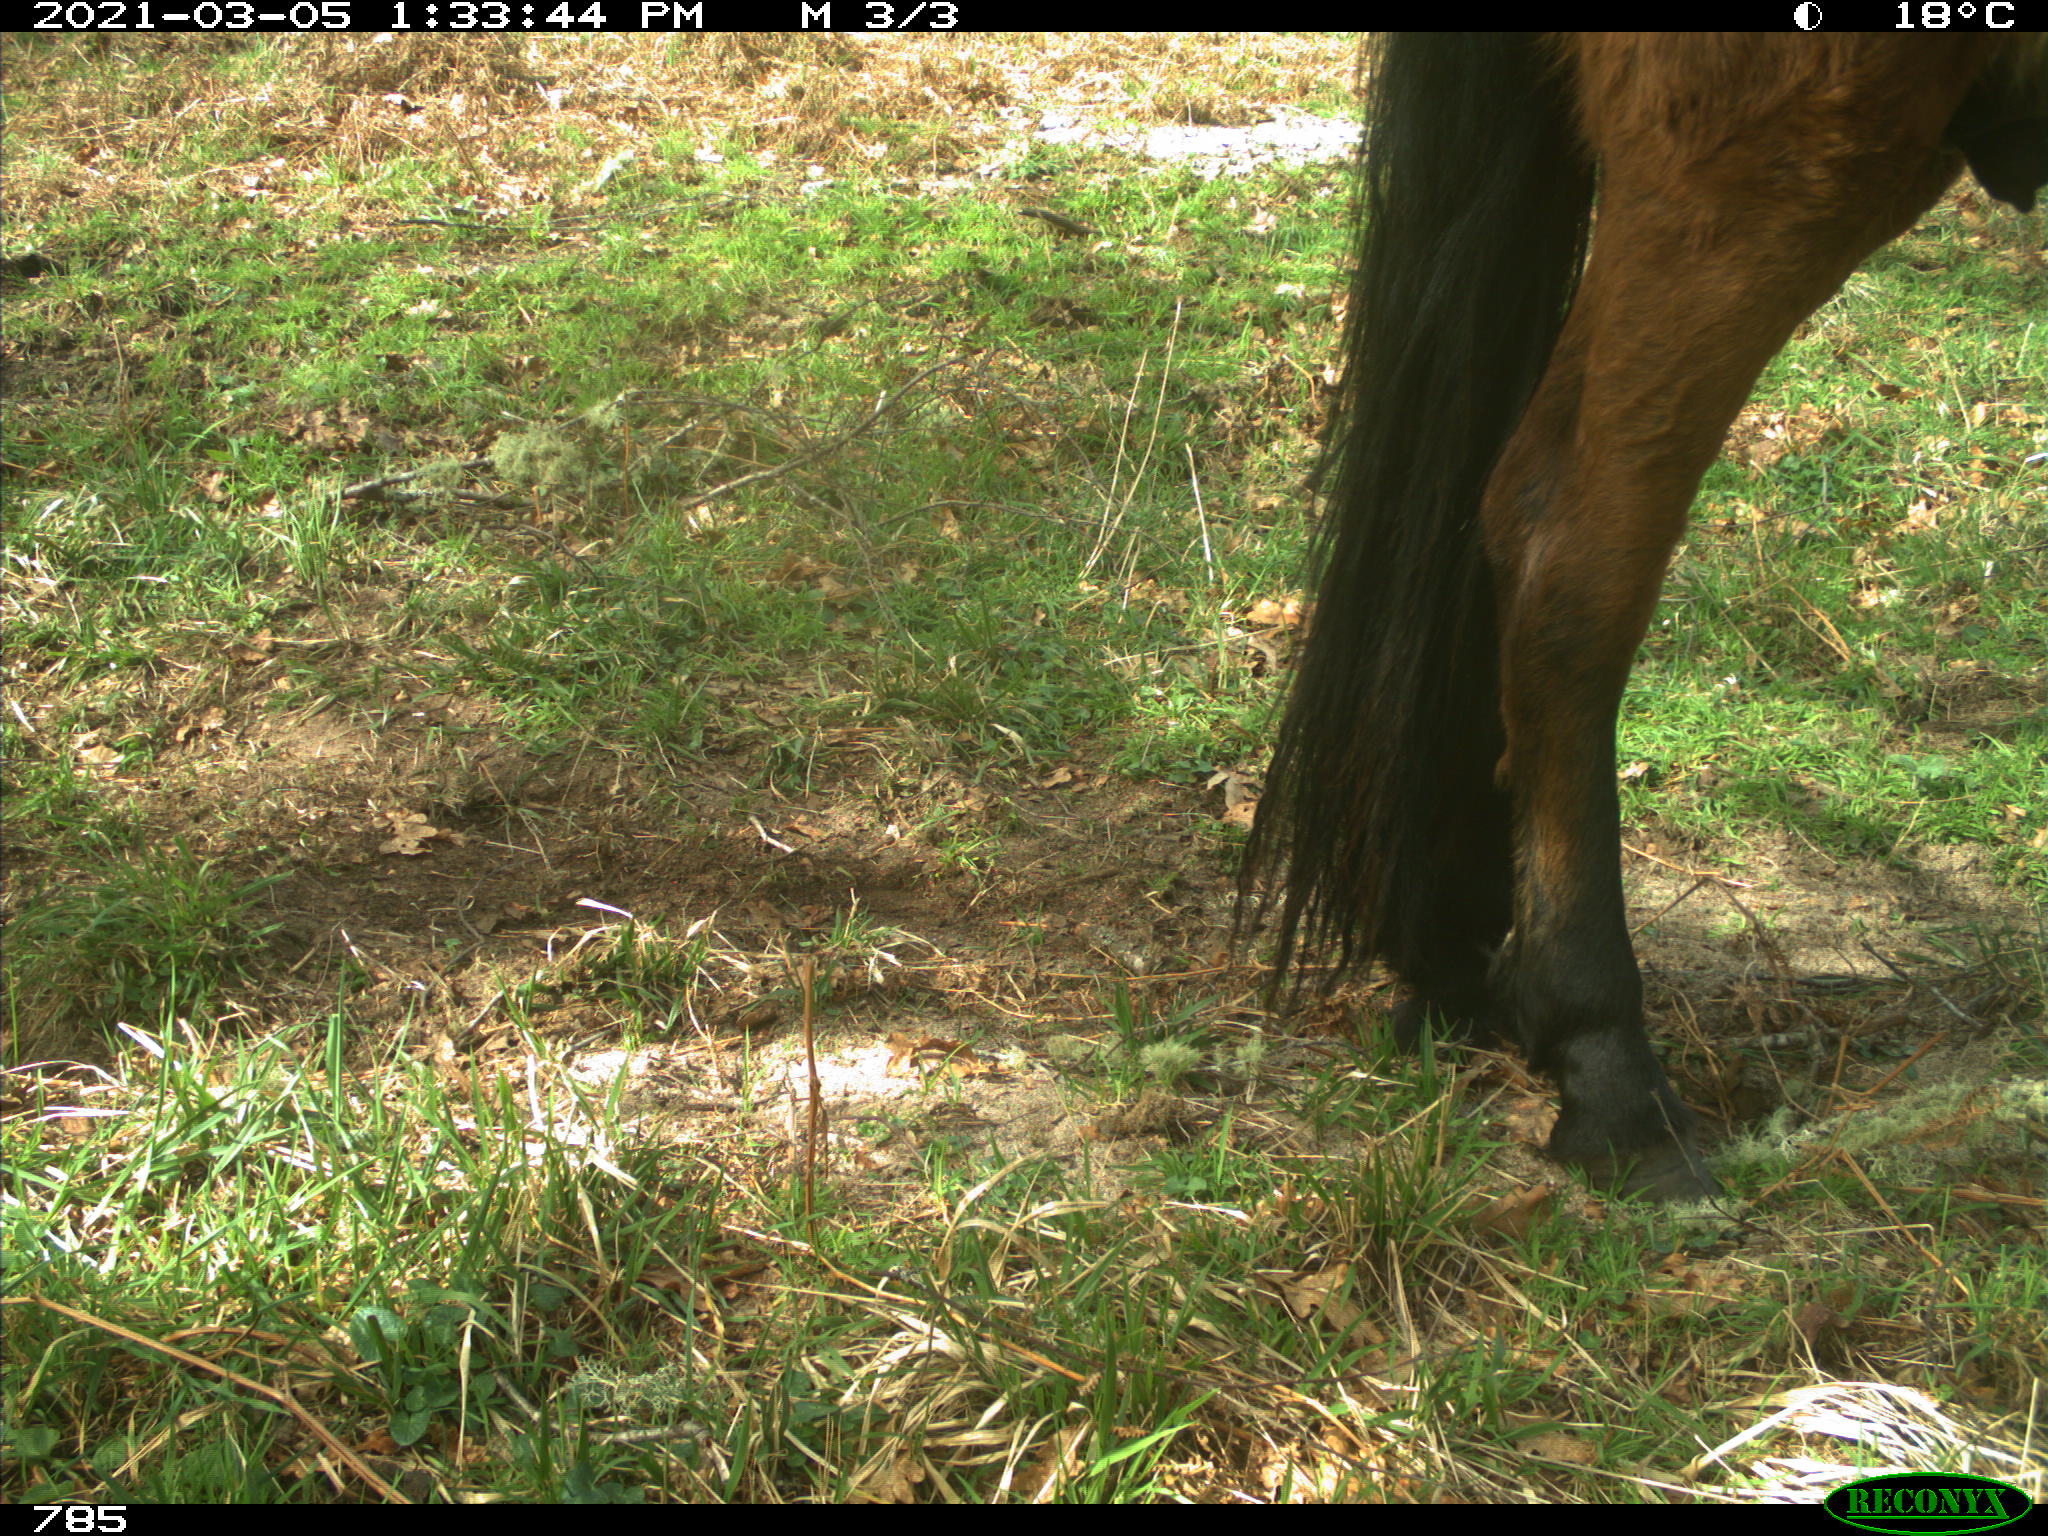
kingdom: Animalia
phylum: Chordata
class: Mammalia
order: Perissodactyla
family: Equidae
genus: Equus
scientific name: Equus caballus
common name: Horse
